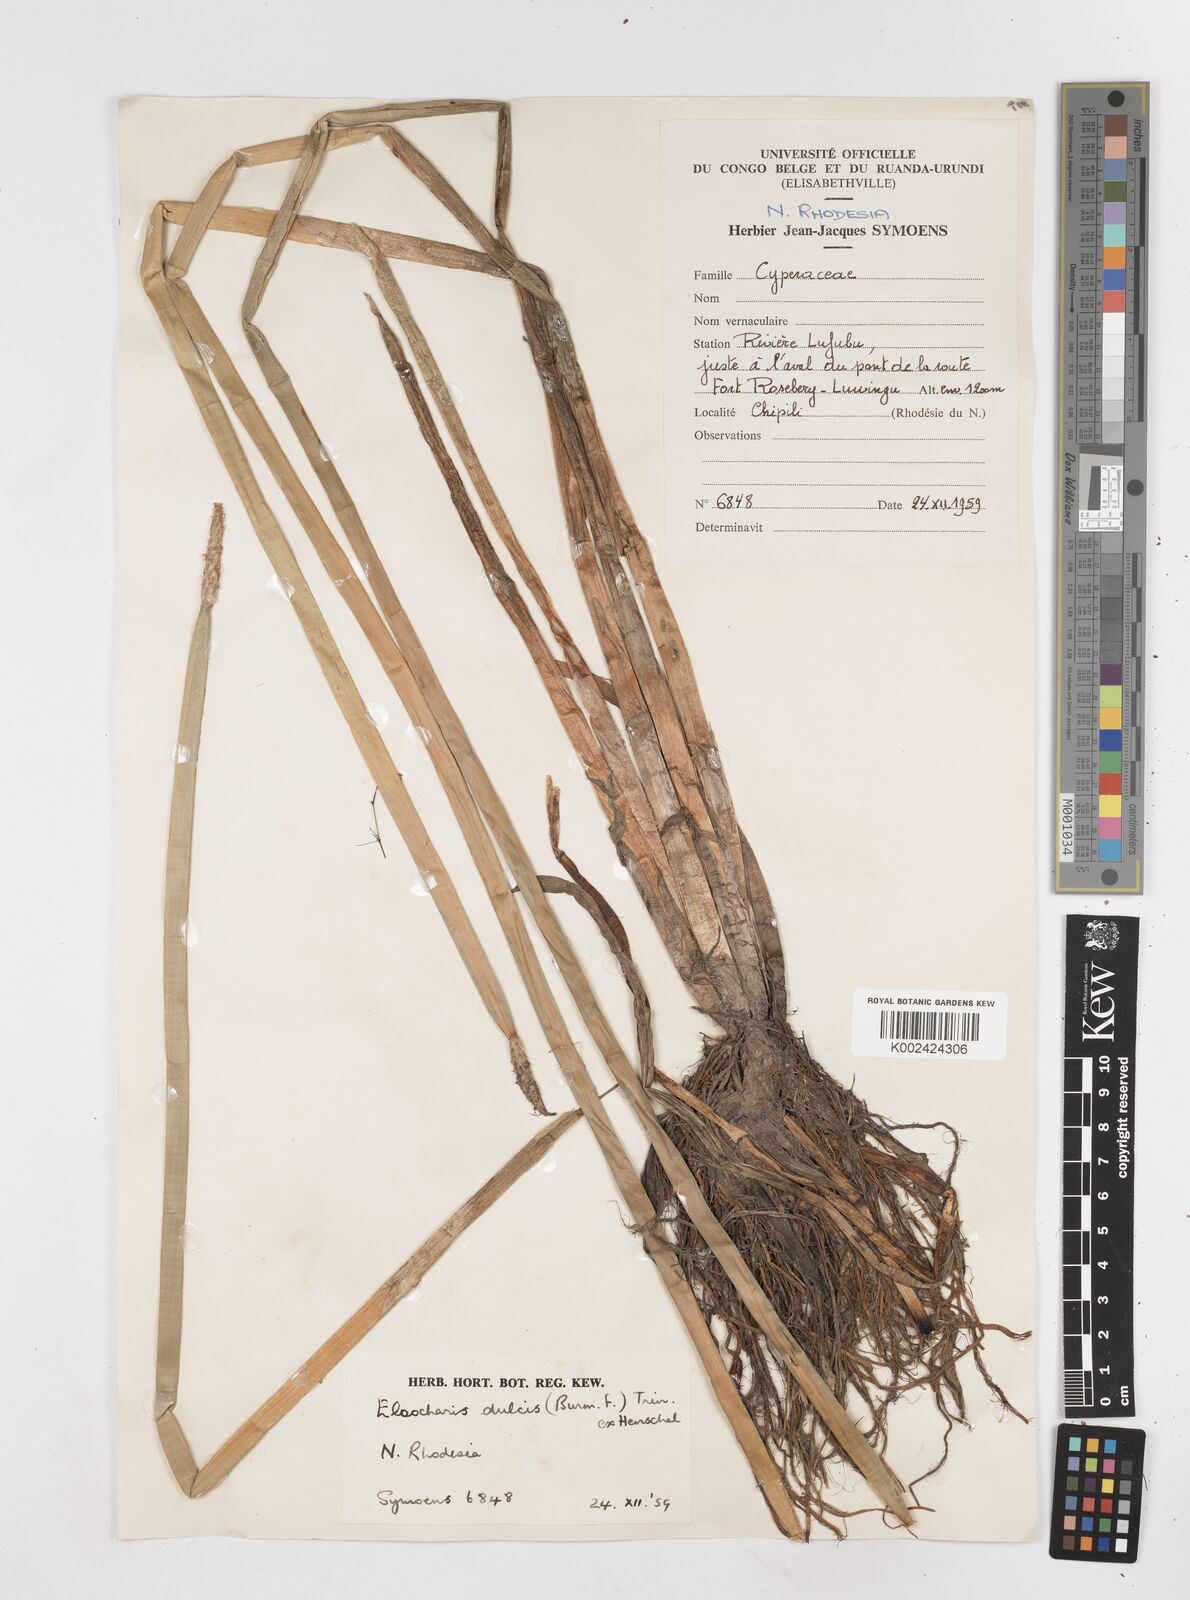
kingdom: Plantae
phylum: Tracheophyta
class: Liliopsida
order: Poales
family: Cyperaceae
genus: Eleocharis
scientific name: Eleocharis dulcis
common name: Chinese water chestnut
